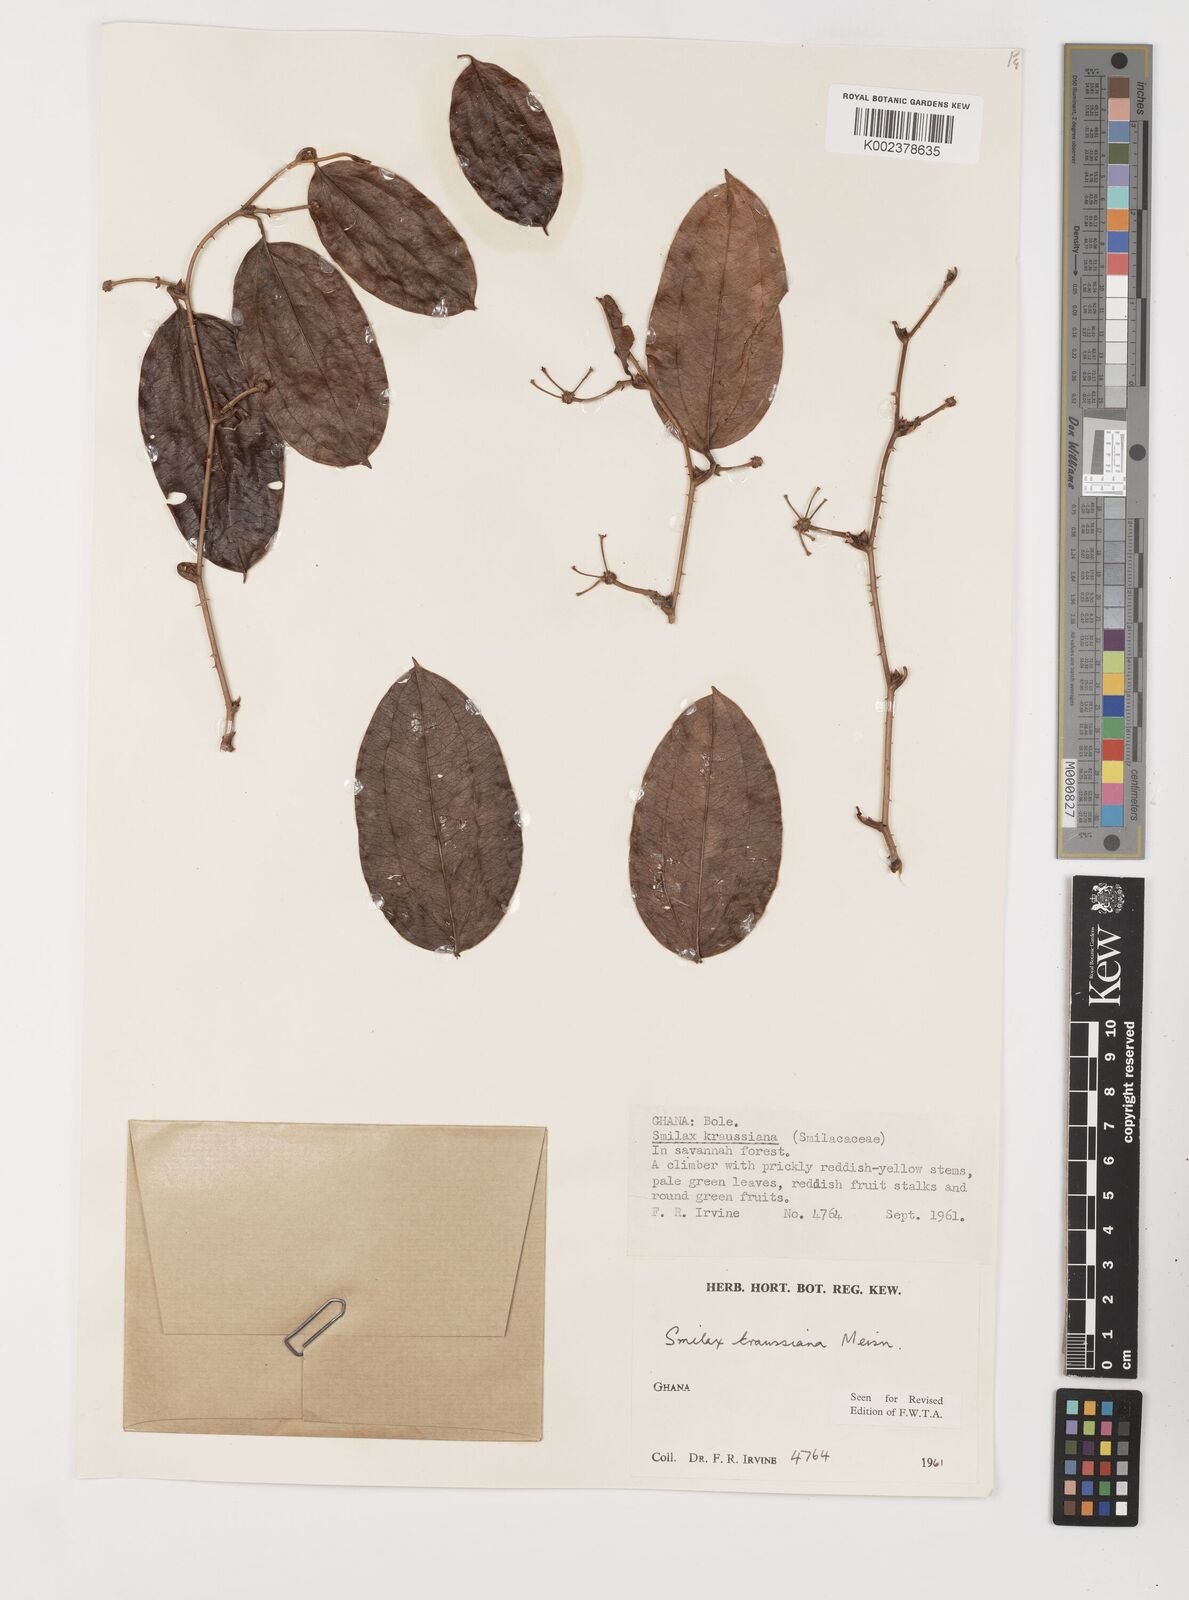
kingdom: Plantae
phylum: Tracheophyta
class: Liliopsida
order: Liliales
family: Smilacaceae
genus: Smilax
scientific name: Smilax anceps
